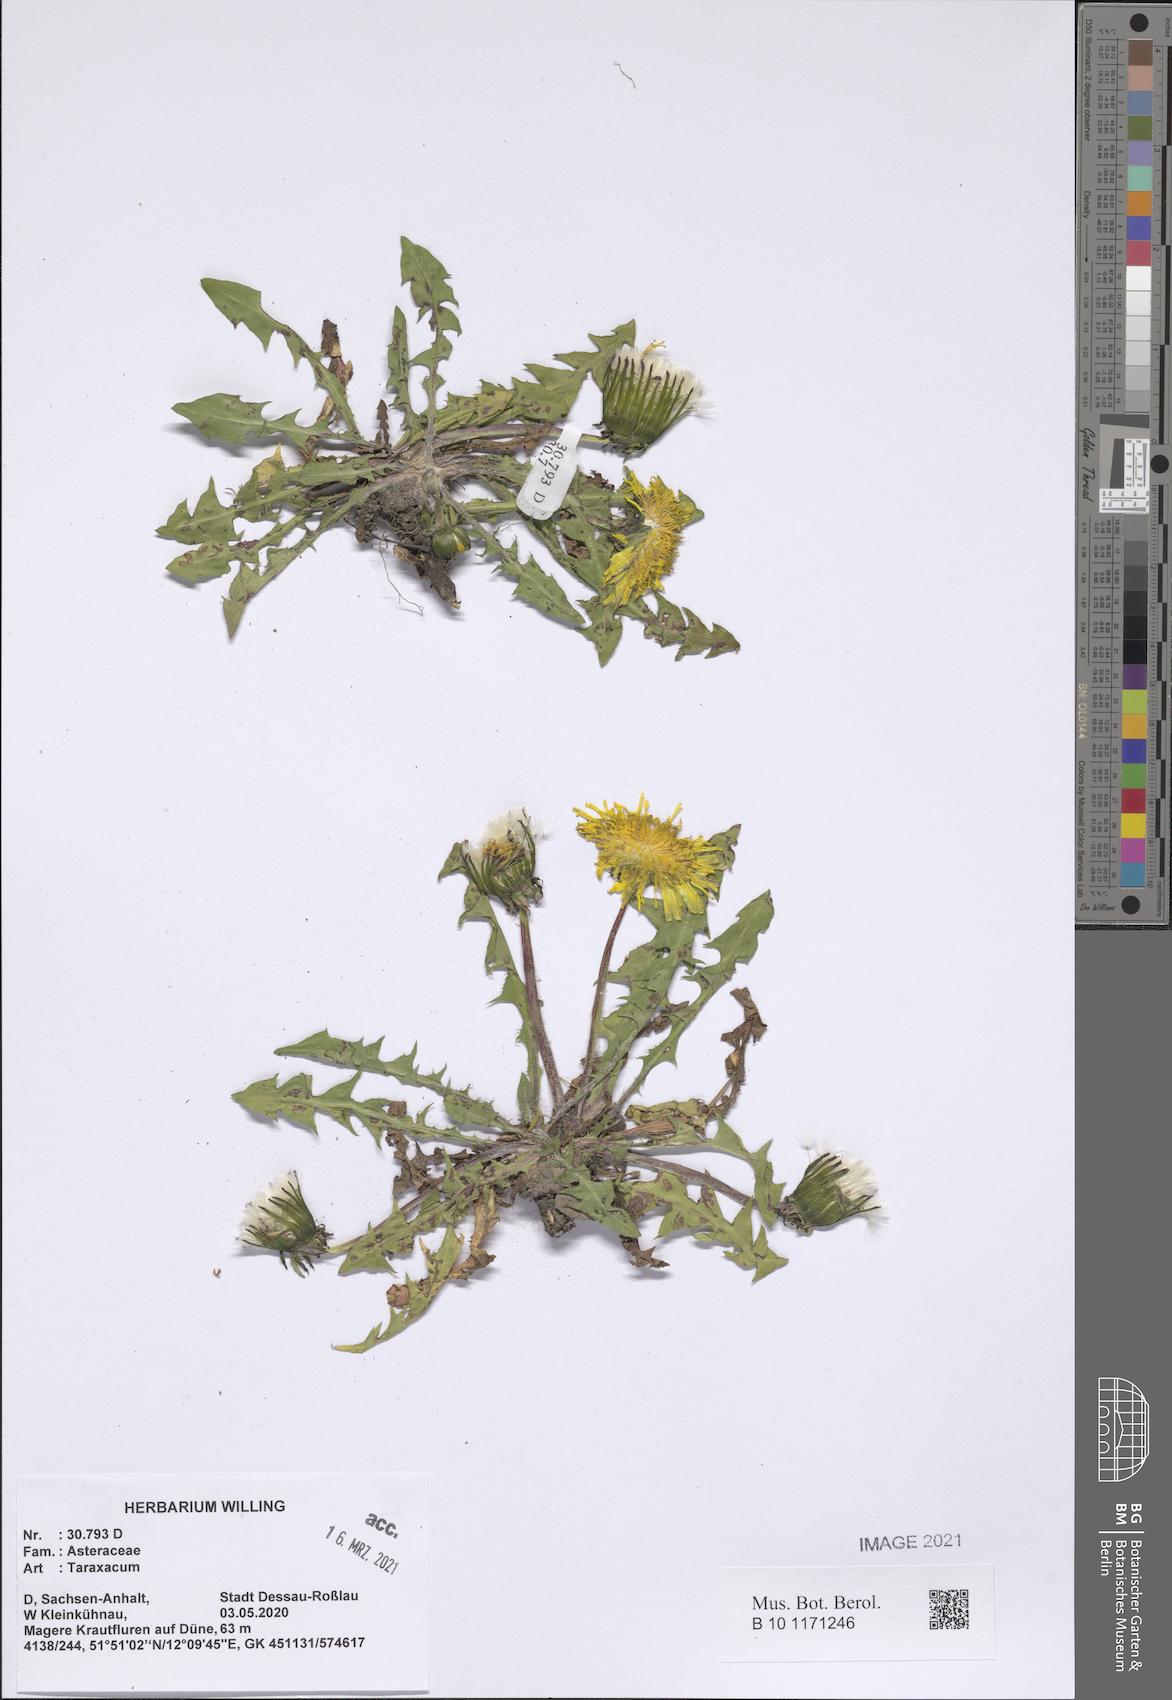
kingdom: Plantae
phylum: Tracheophyta
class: Magnoliopsida
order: Asterales
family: Asteraceae
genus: Taraxacum
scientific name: Taraxacum
